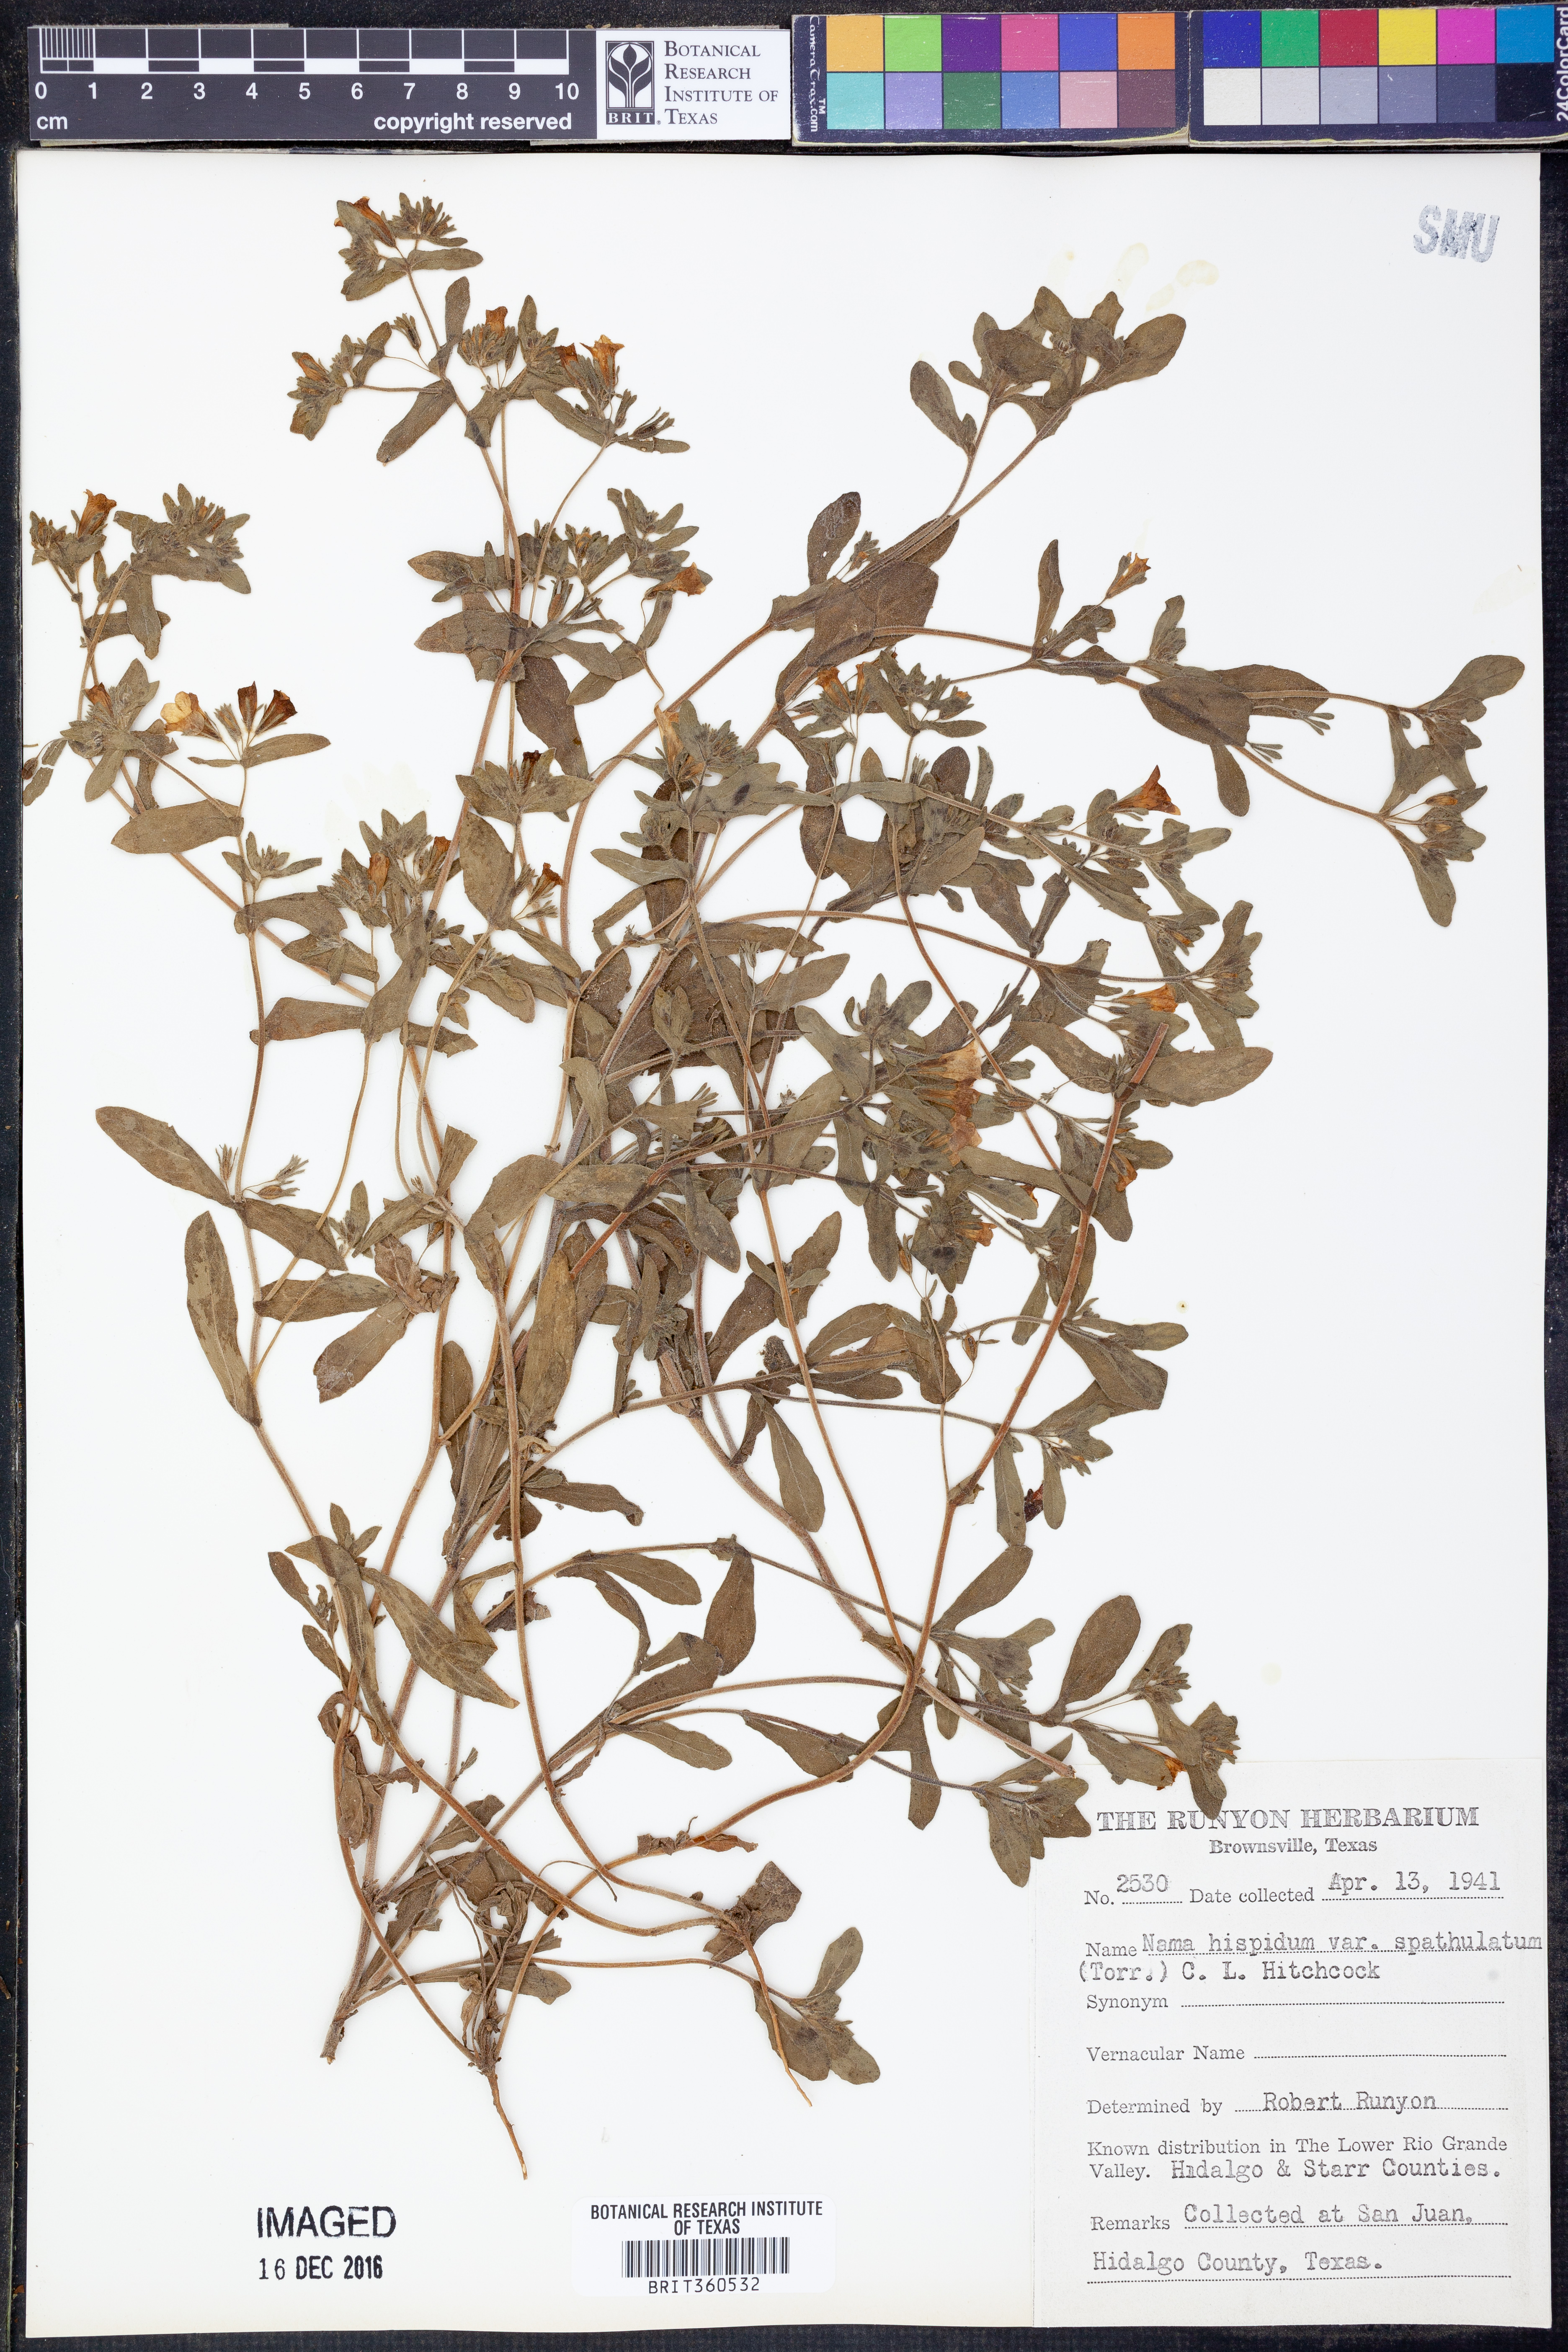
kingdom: Plantae
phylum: Tracheophyta
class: Magnoliopsida
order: Boraginales
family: Namaceae
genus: Nama
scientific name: Nama hispida
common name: Bristly nama
